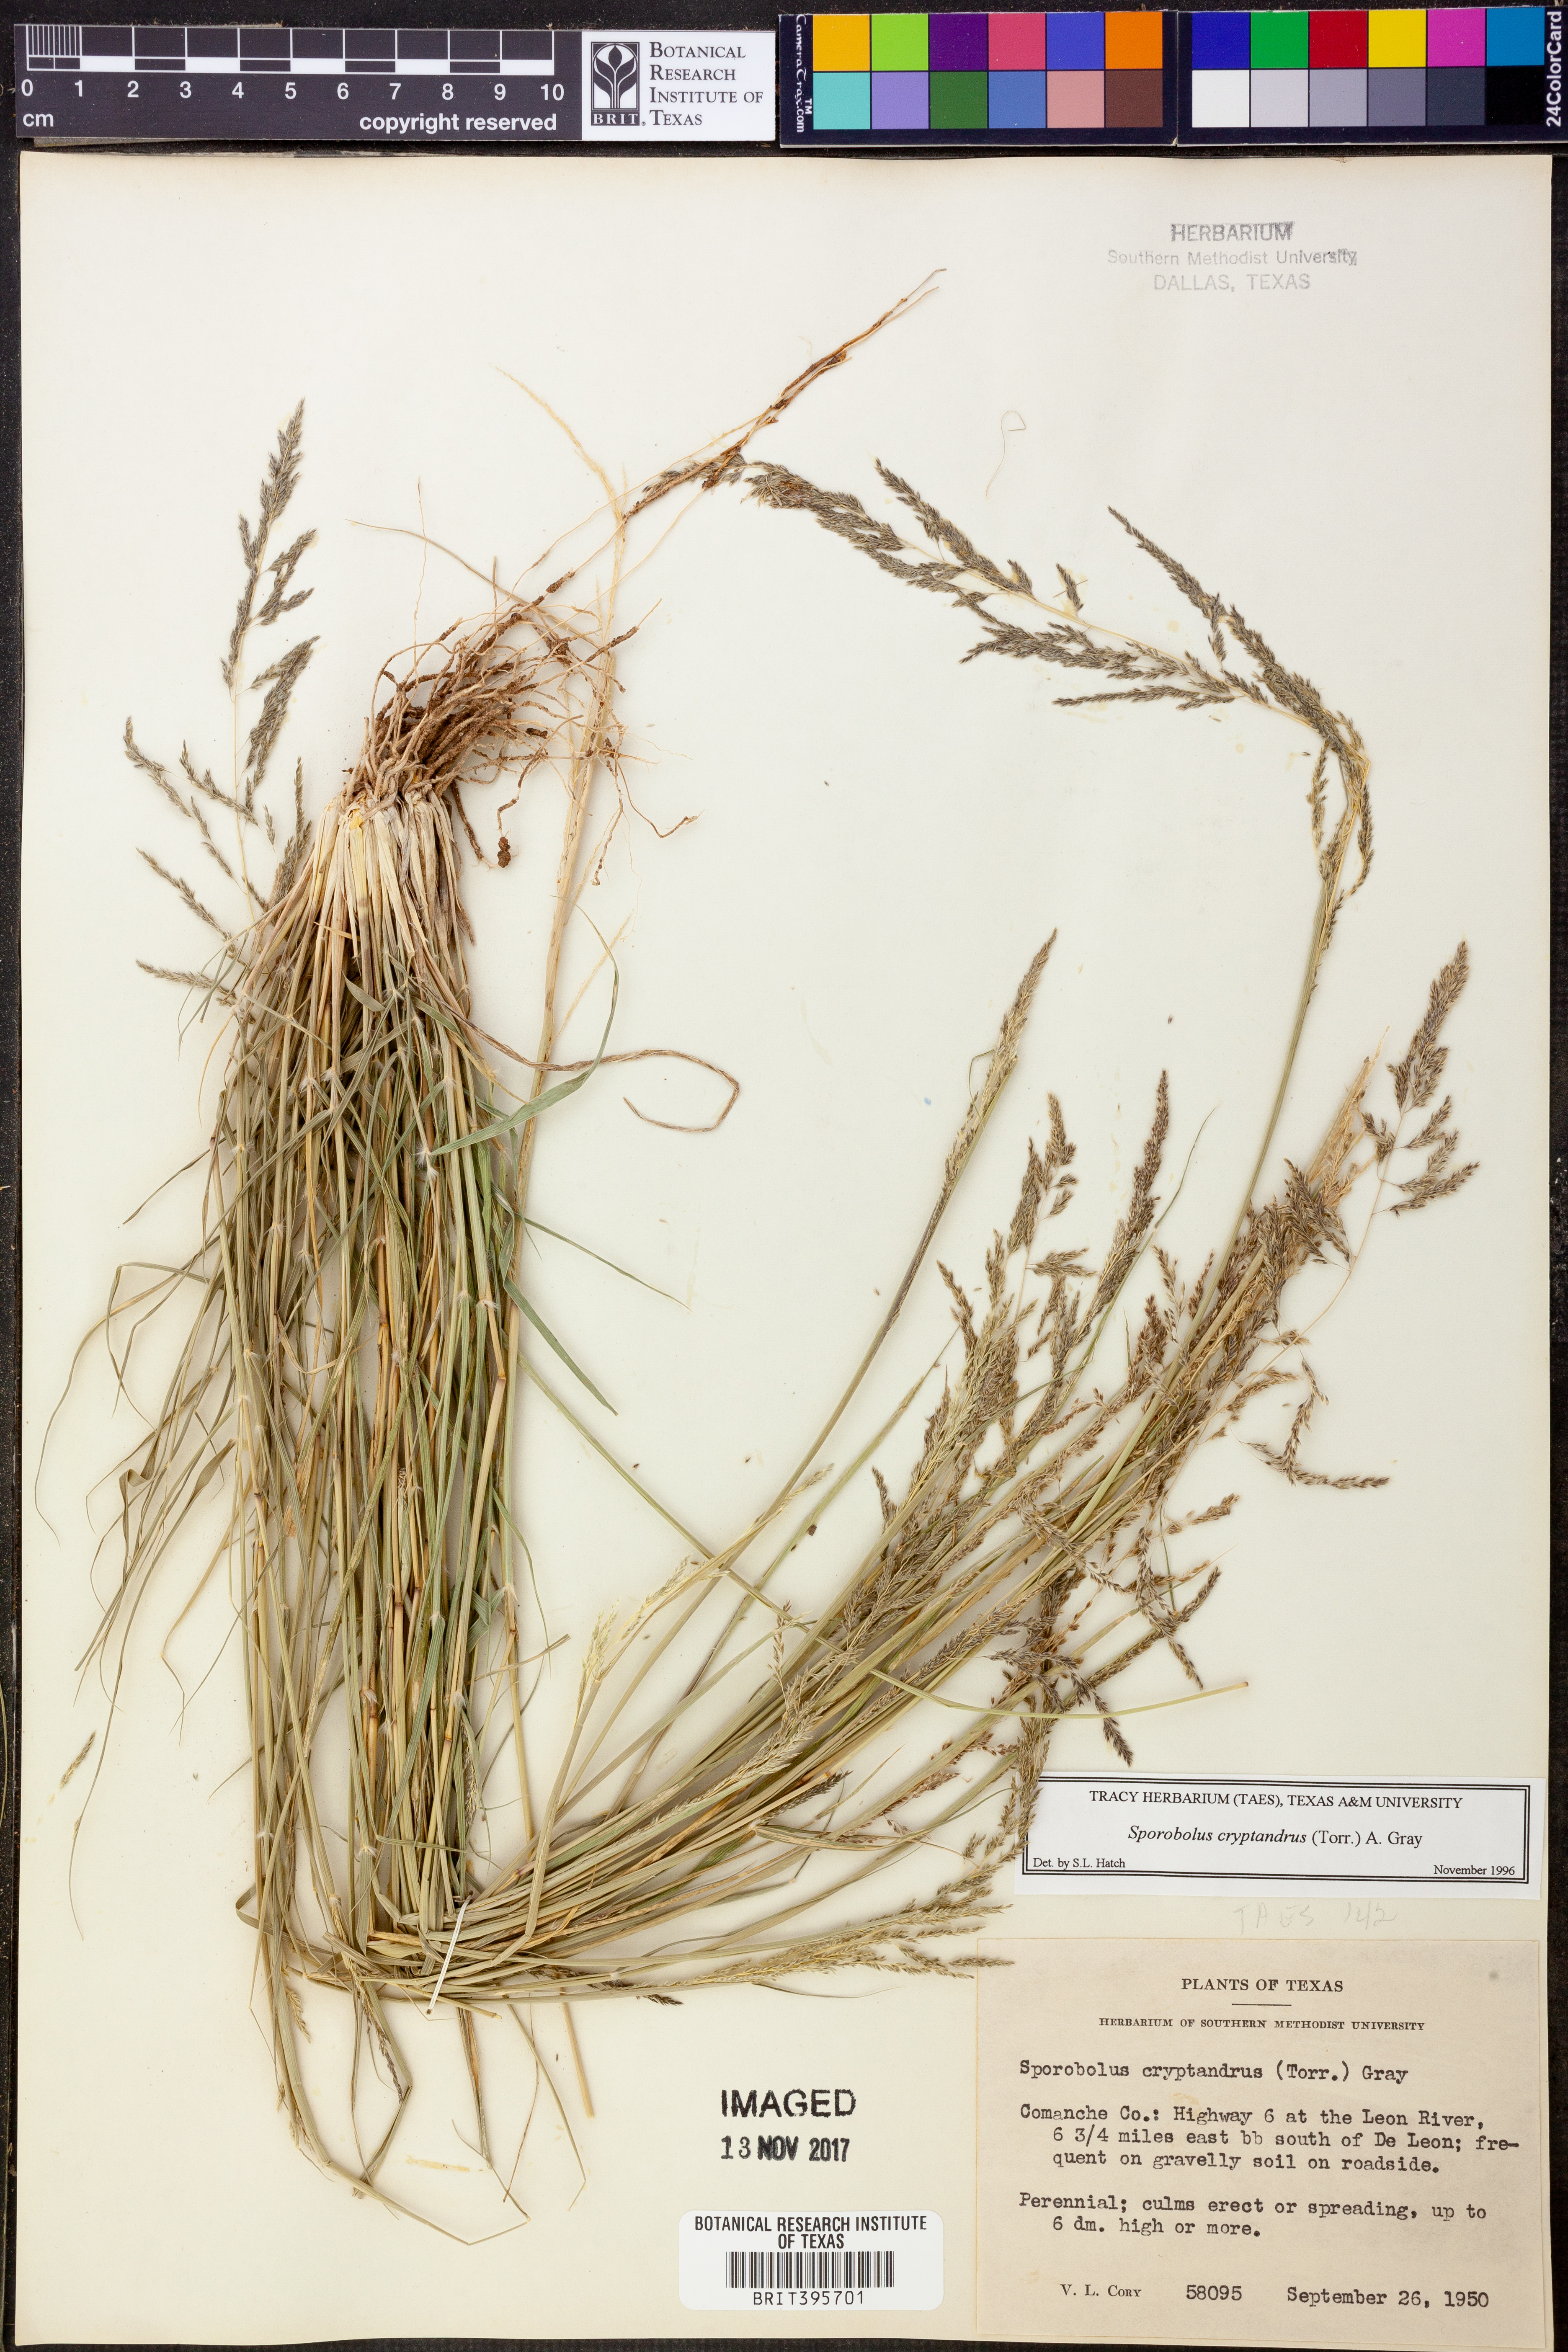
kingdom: Plantae
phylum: Tracheophyta
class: Liliopsida
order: Poales
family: Poaceae
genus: Sporobolus
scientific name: Sporobolus cryptandrus
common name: Sand dropseed
